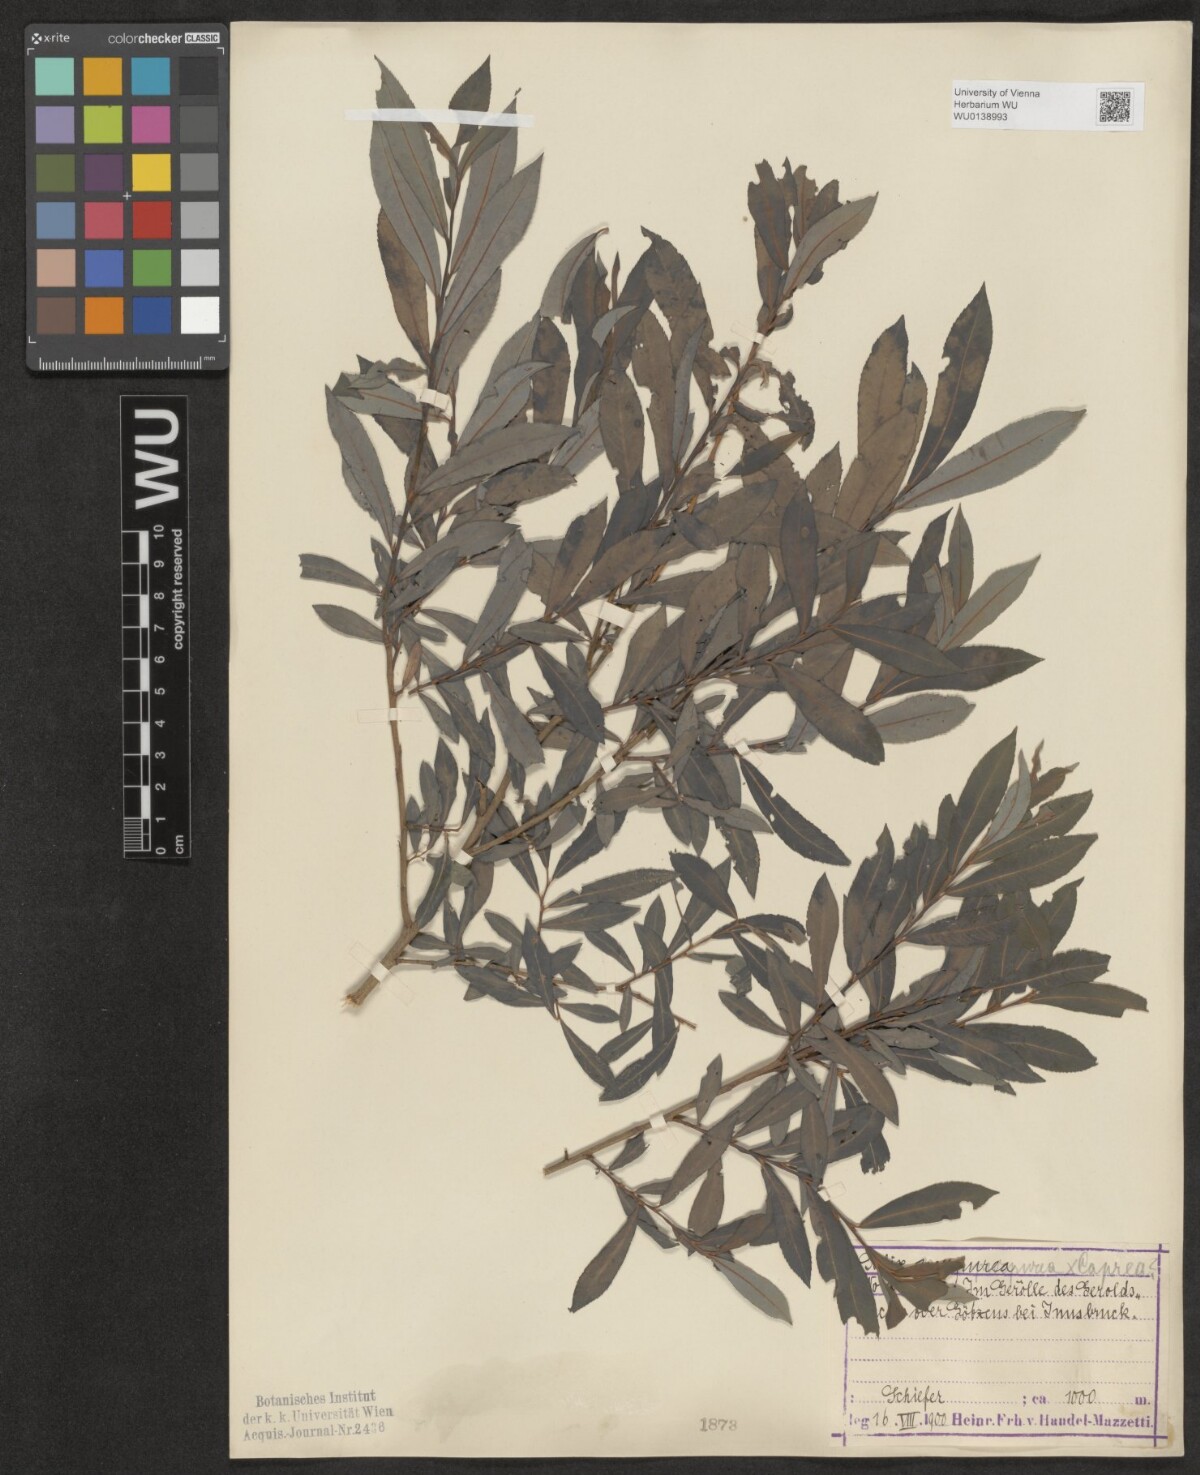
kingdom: Plantae
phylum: Tracheophyta
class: Magnoliopsida
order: Malpighiales
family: Salicaceae
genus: Salix
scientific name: Salix purpurea
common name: Purple willow
